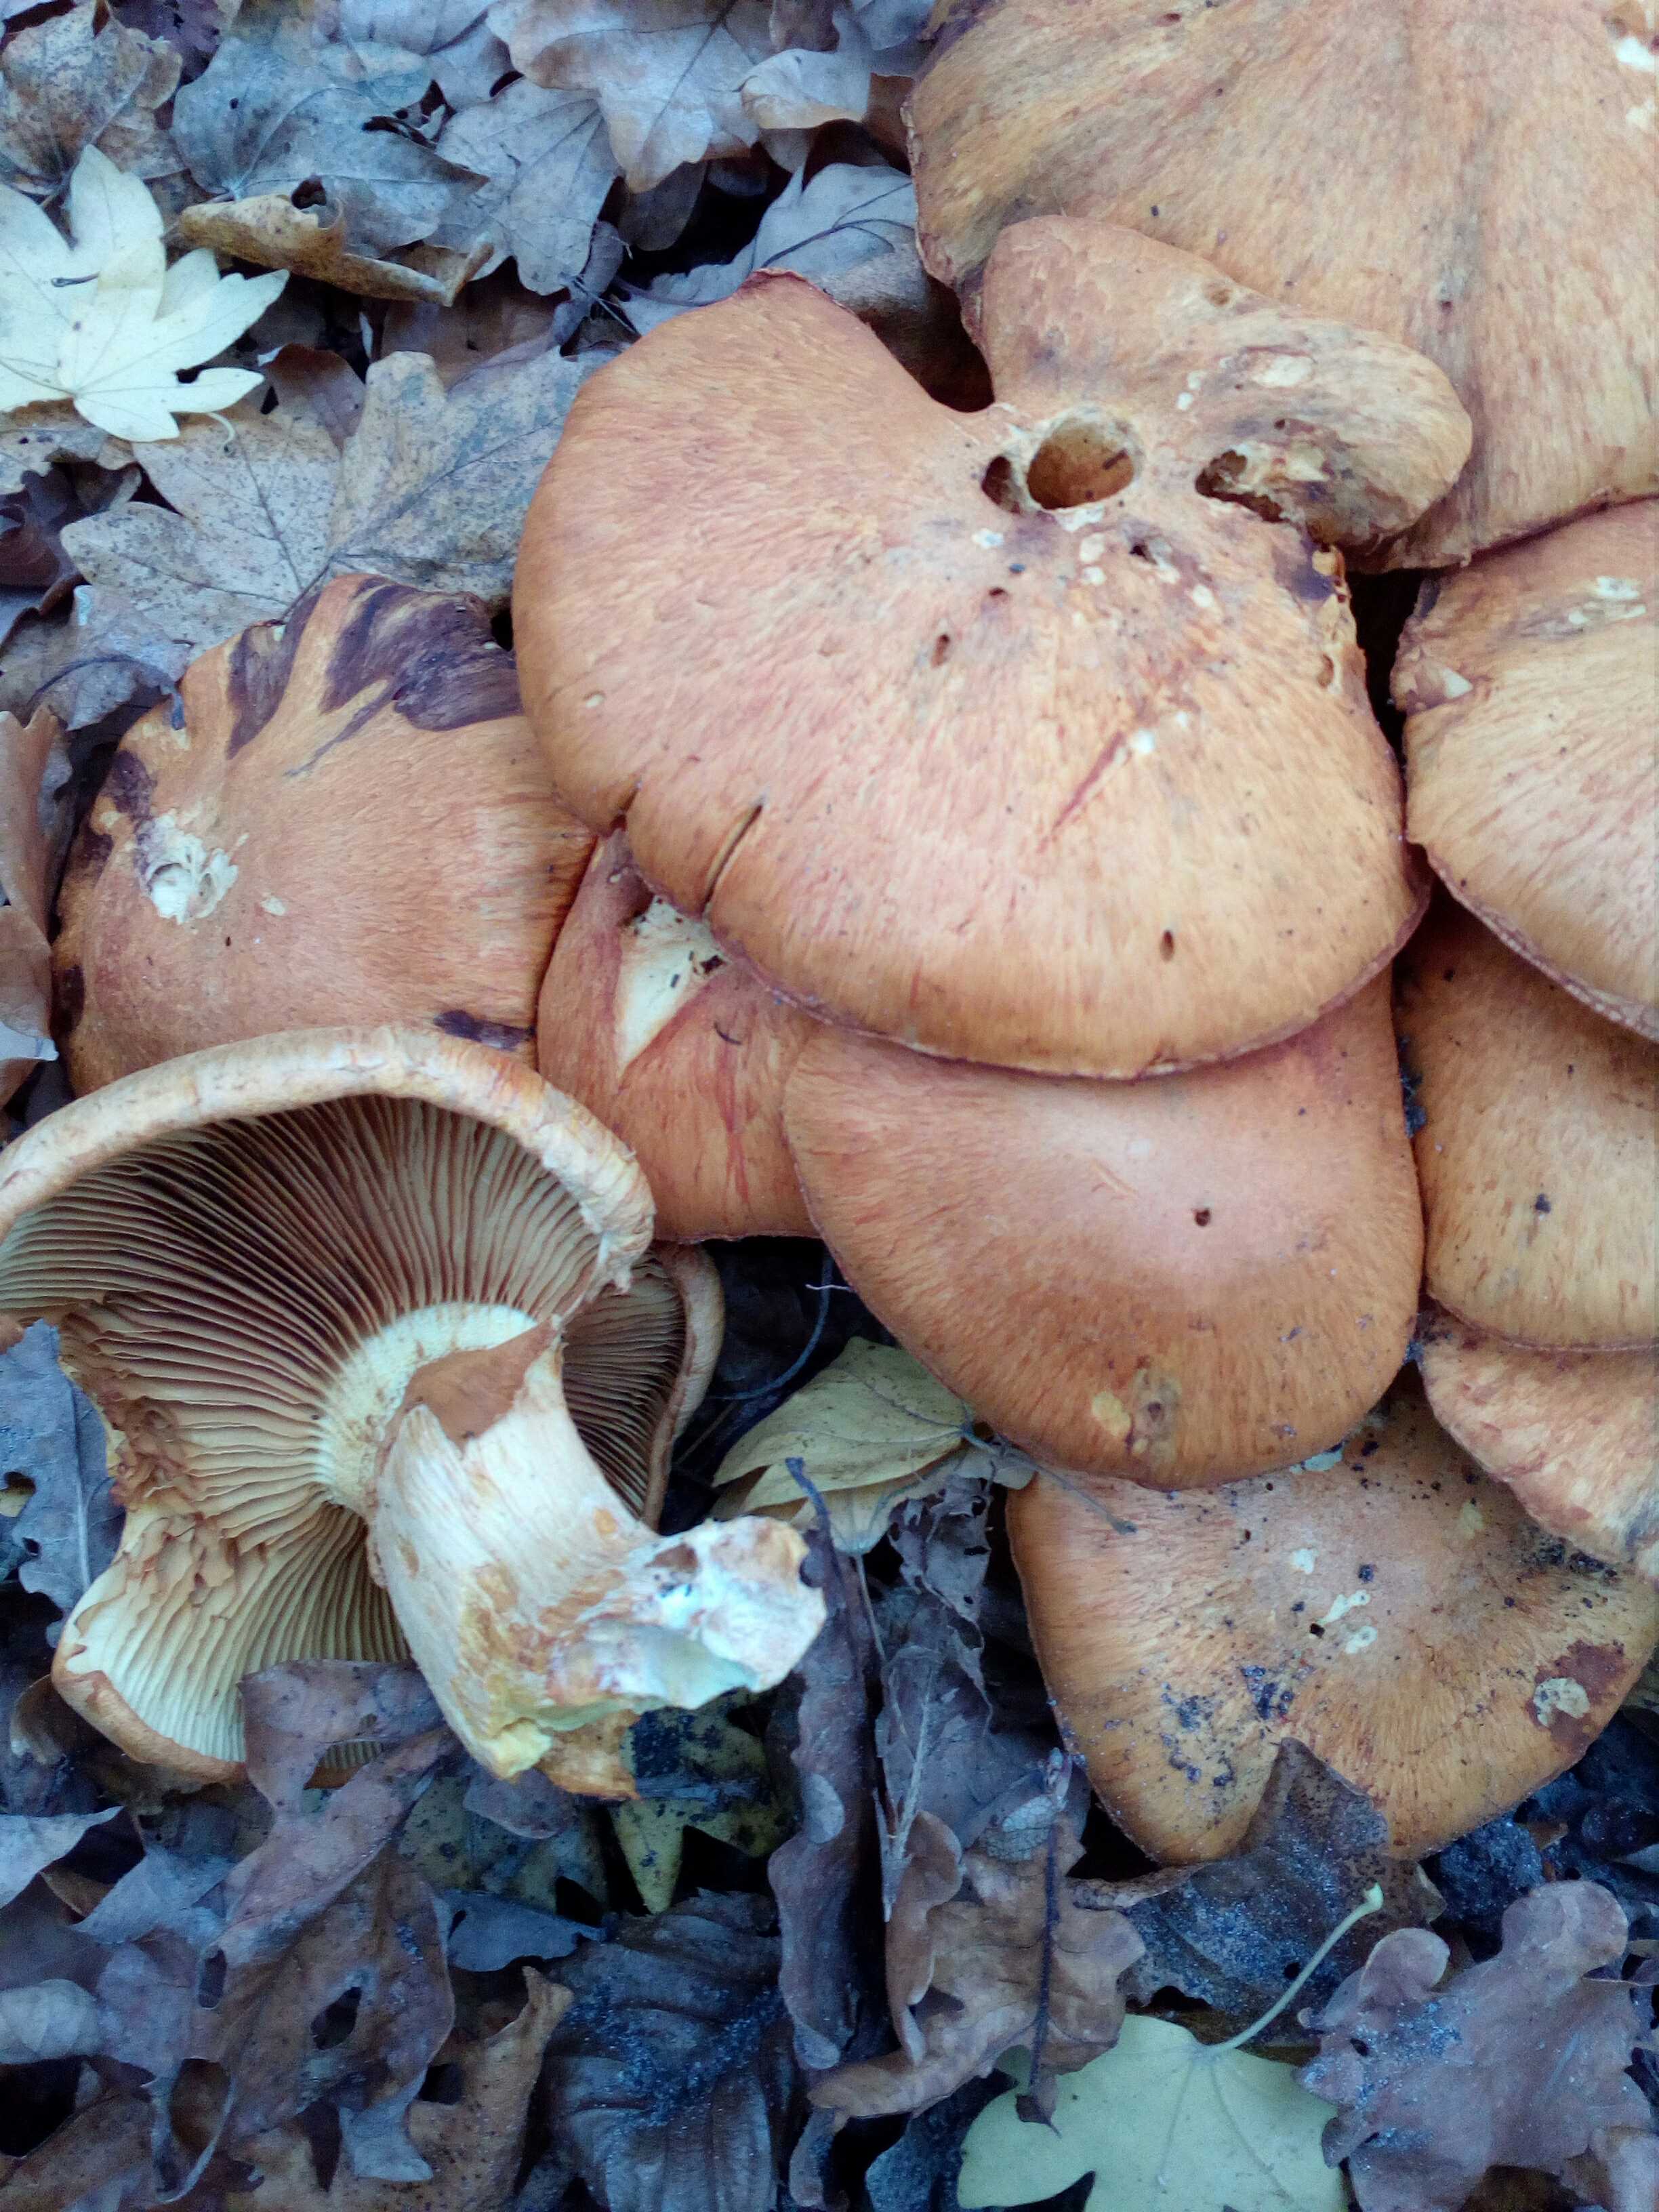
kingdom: Fungi
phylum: Basidiomycota
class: Agaricomycetes
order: Agaricales
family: Hymenogastraceae
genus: Gymnopilus
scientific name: Gymnopilus spectabilis
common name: fibret flammehat
